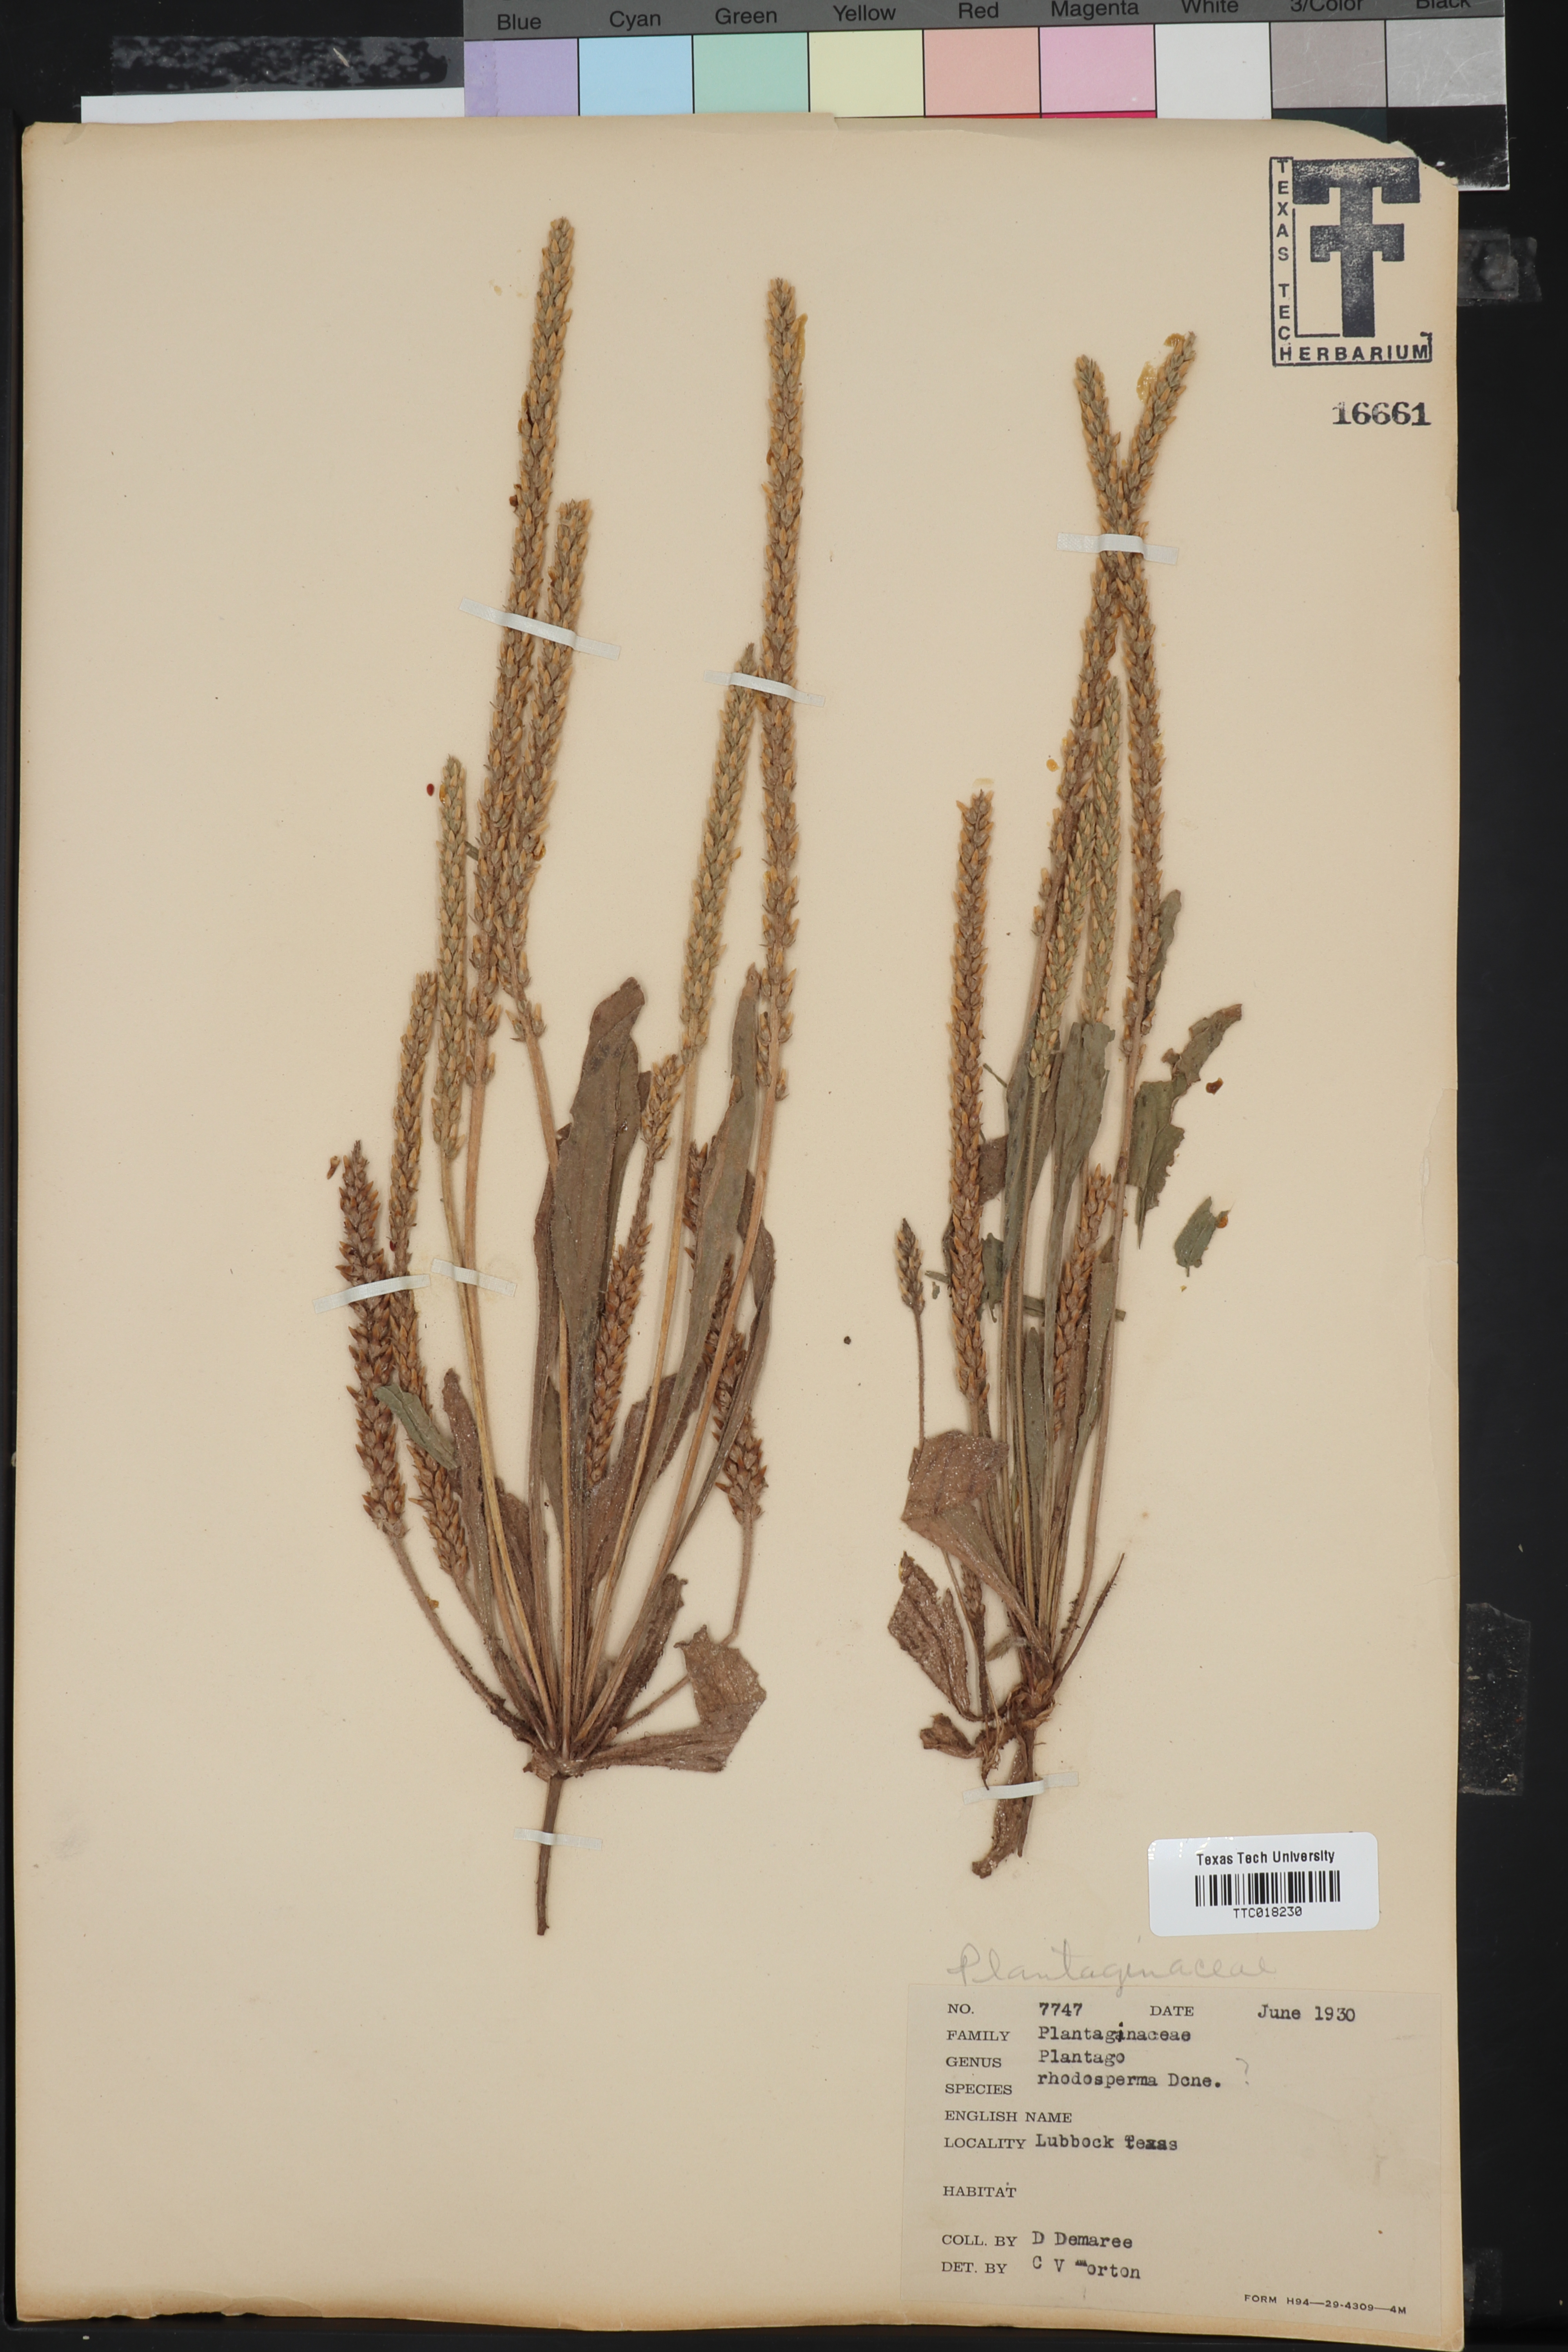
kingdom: Plantae
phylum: Tracheophyta
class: Magnoliopsida
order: Lamiales
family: Plantaginaceae
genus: Plantago
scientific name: Plantago rhodosperma
